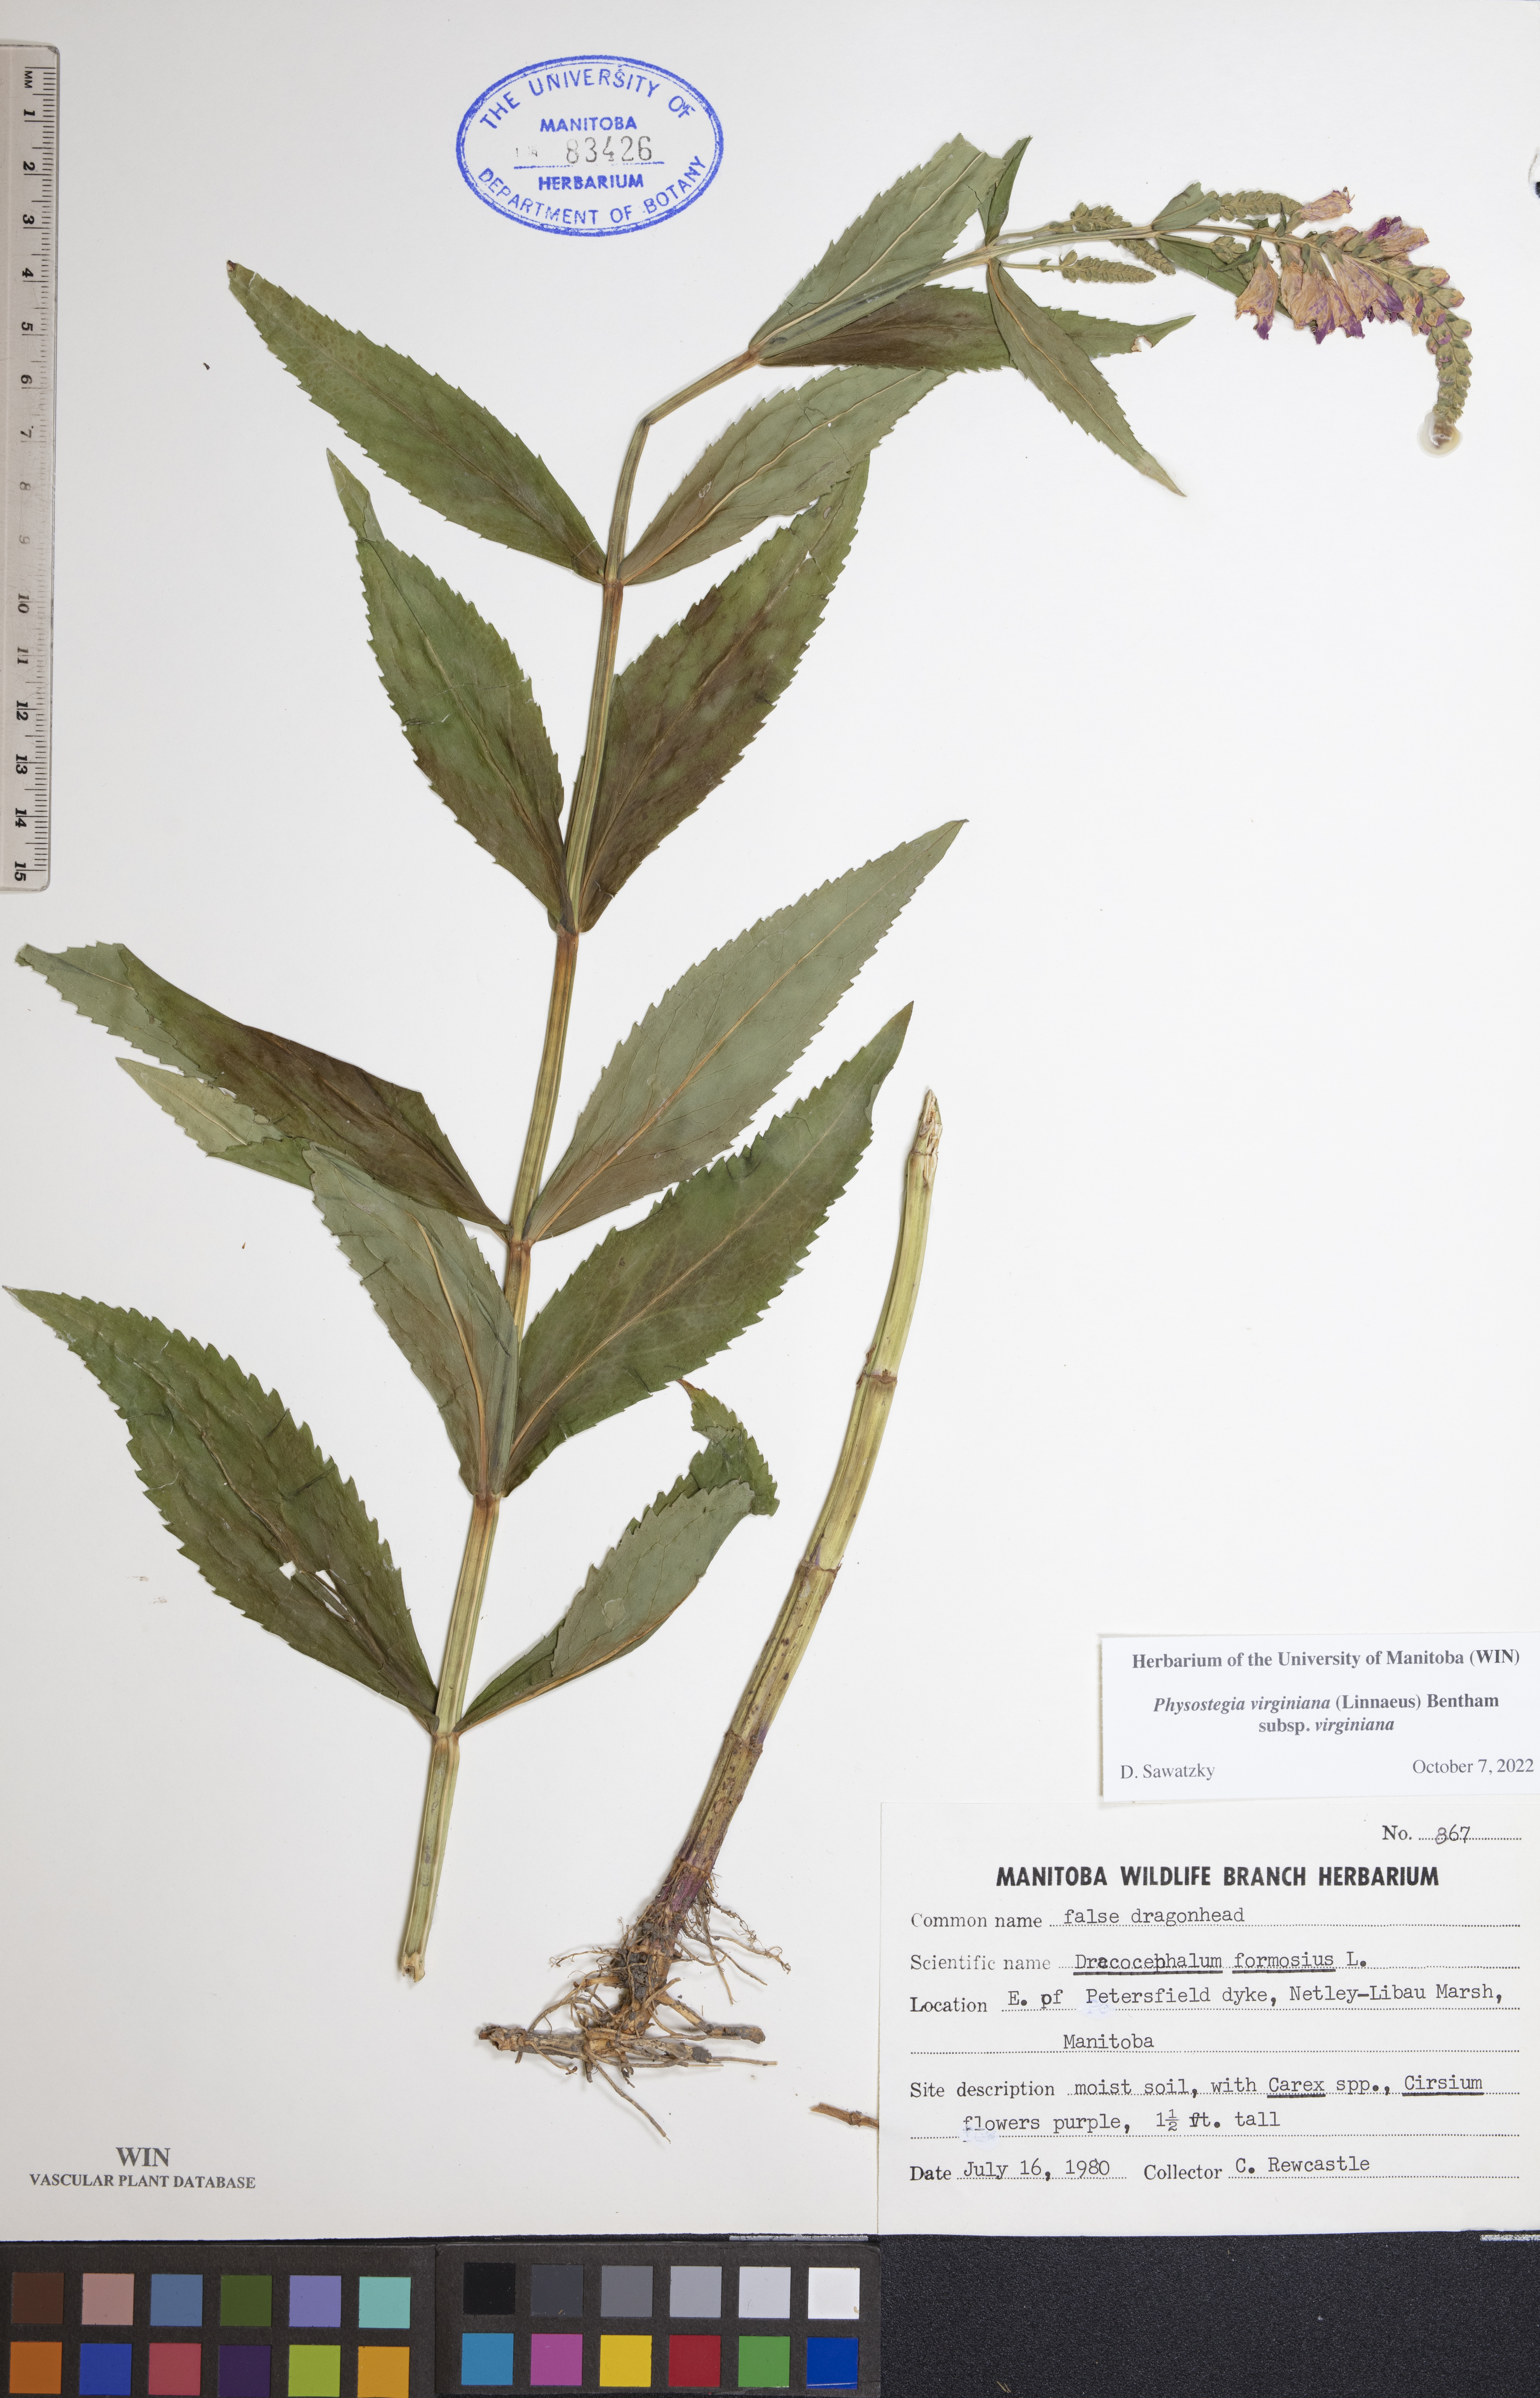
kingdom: Plantae
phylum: Tracheophyta
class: Magnoliopsida
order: Lamiales
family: Lamiaceae
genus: Physostegia
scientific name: Physostegia virginiana
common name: Obedient-plant
